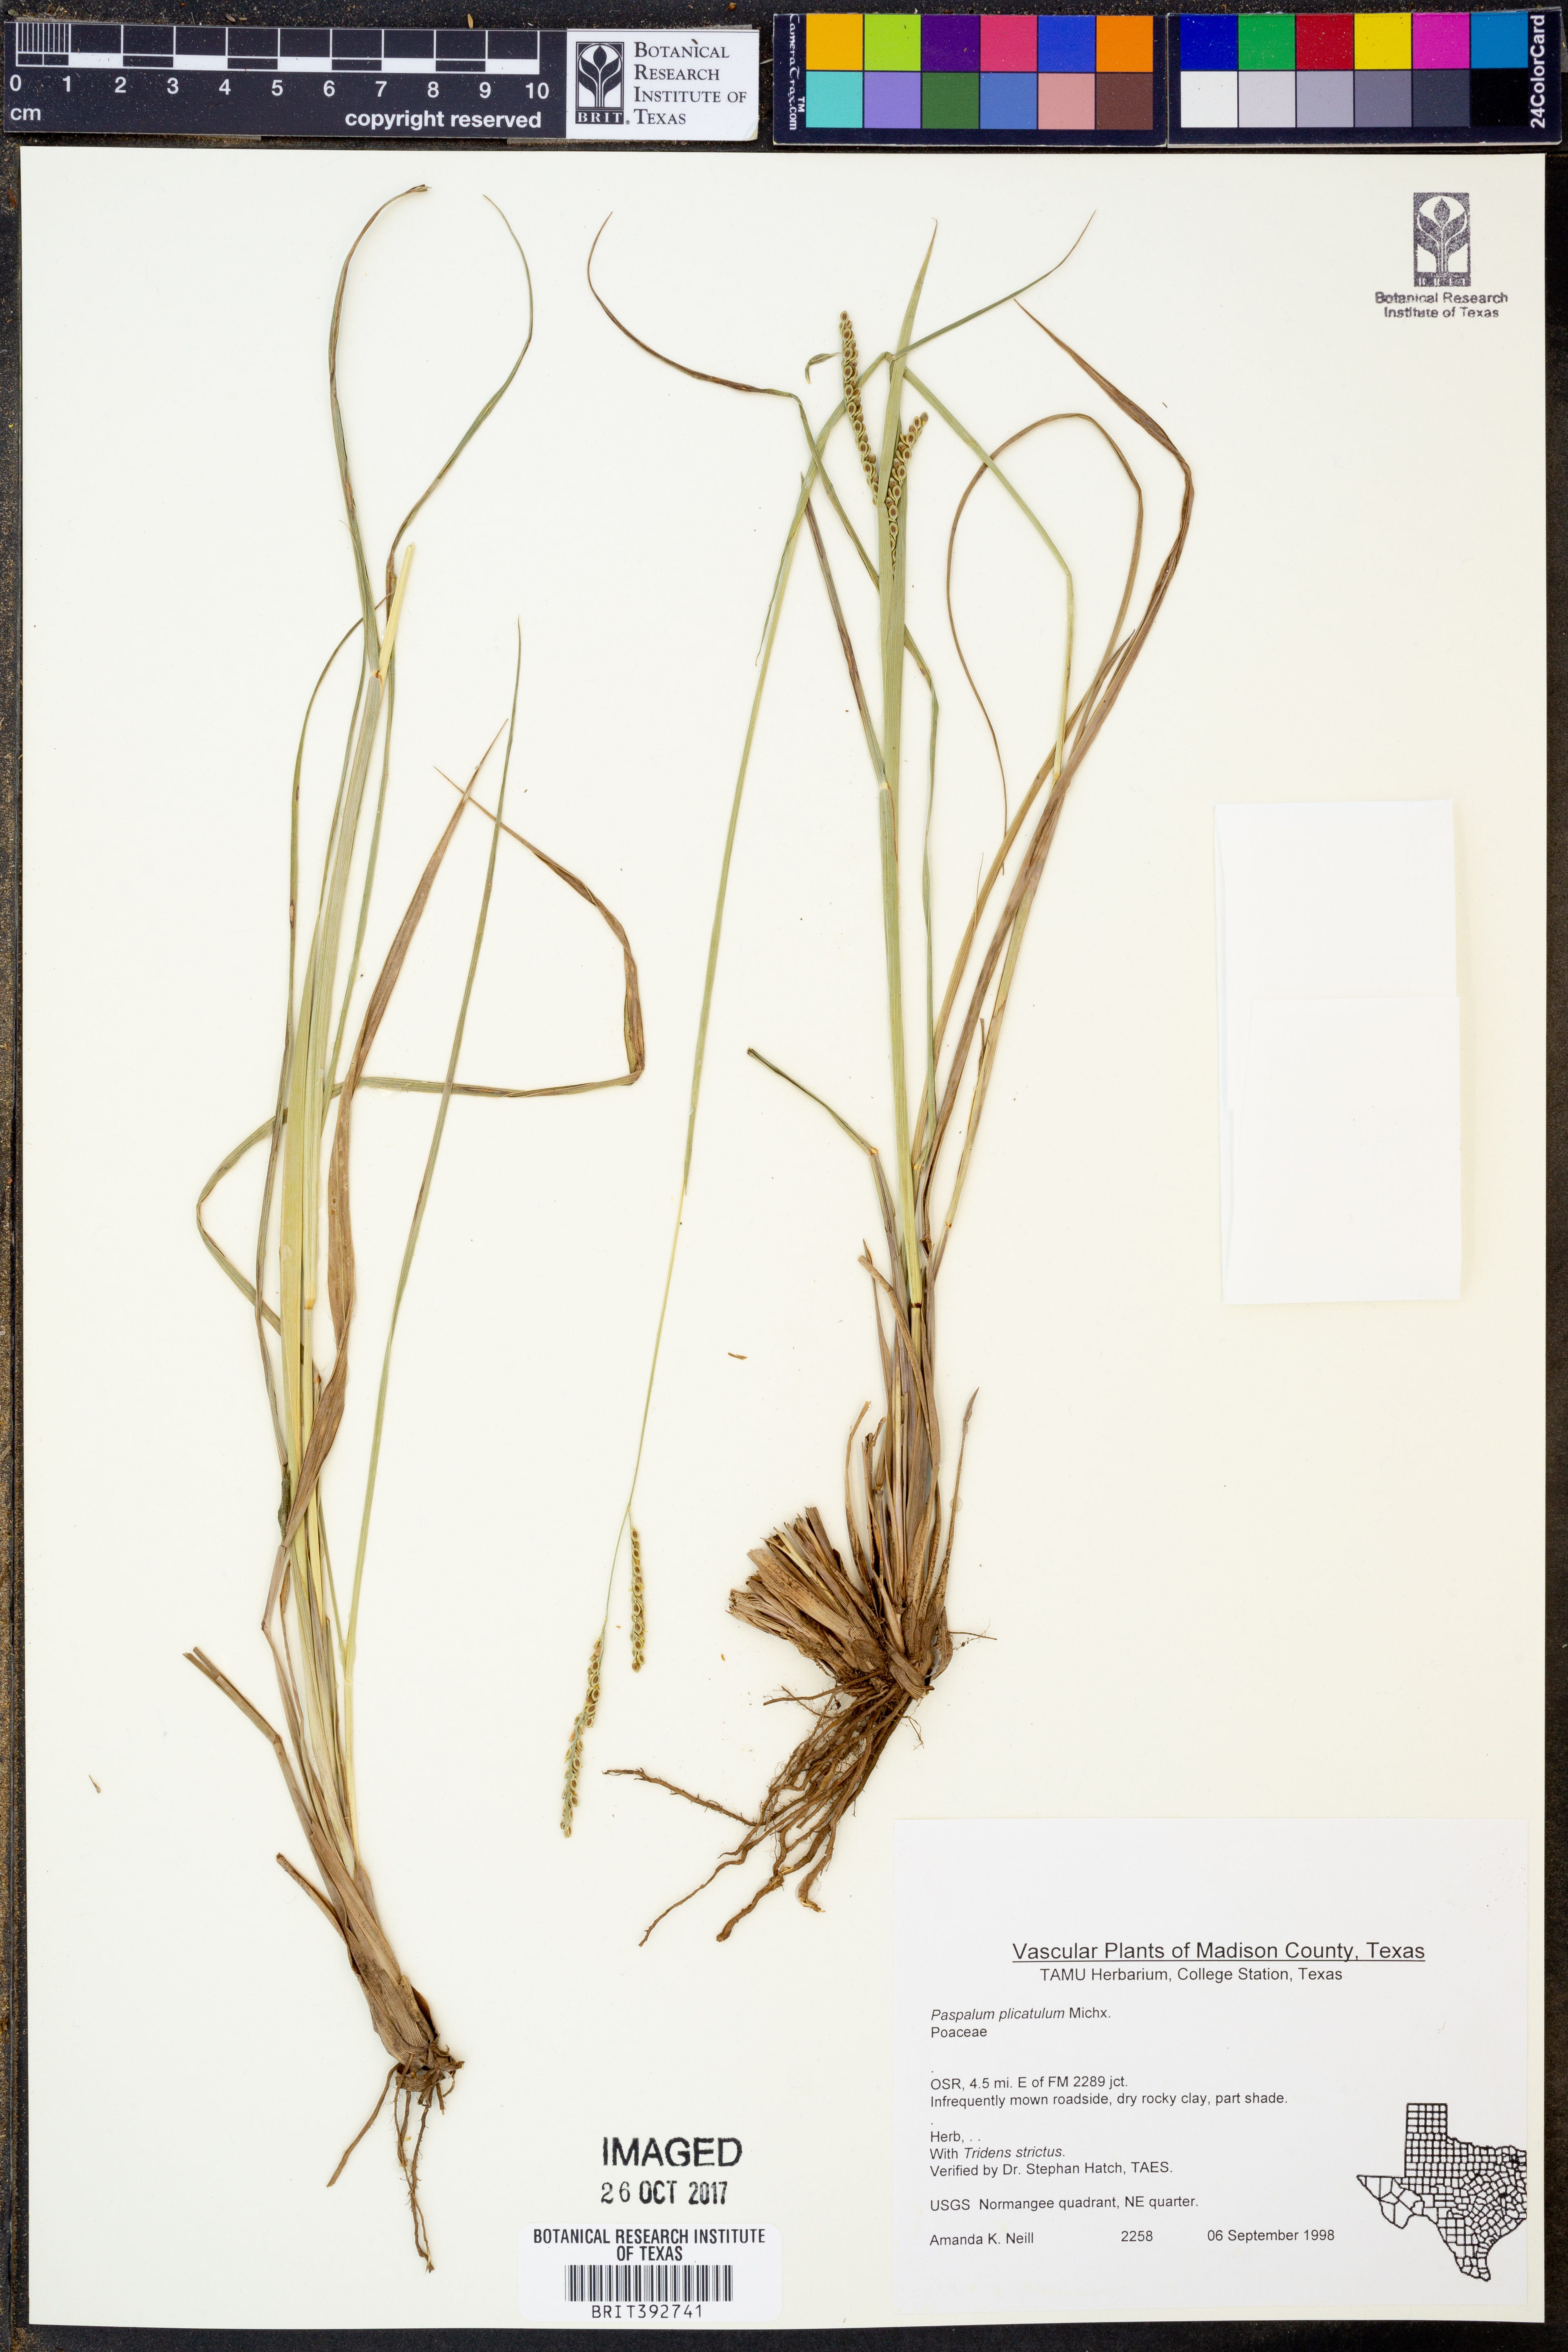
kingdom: Plantae
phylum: Tracheophyta
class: Liliopsida
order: Poales
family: Poaceae
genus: Paspalum
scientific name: Paspalum plicatulum
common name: Top paspalum
